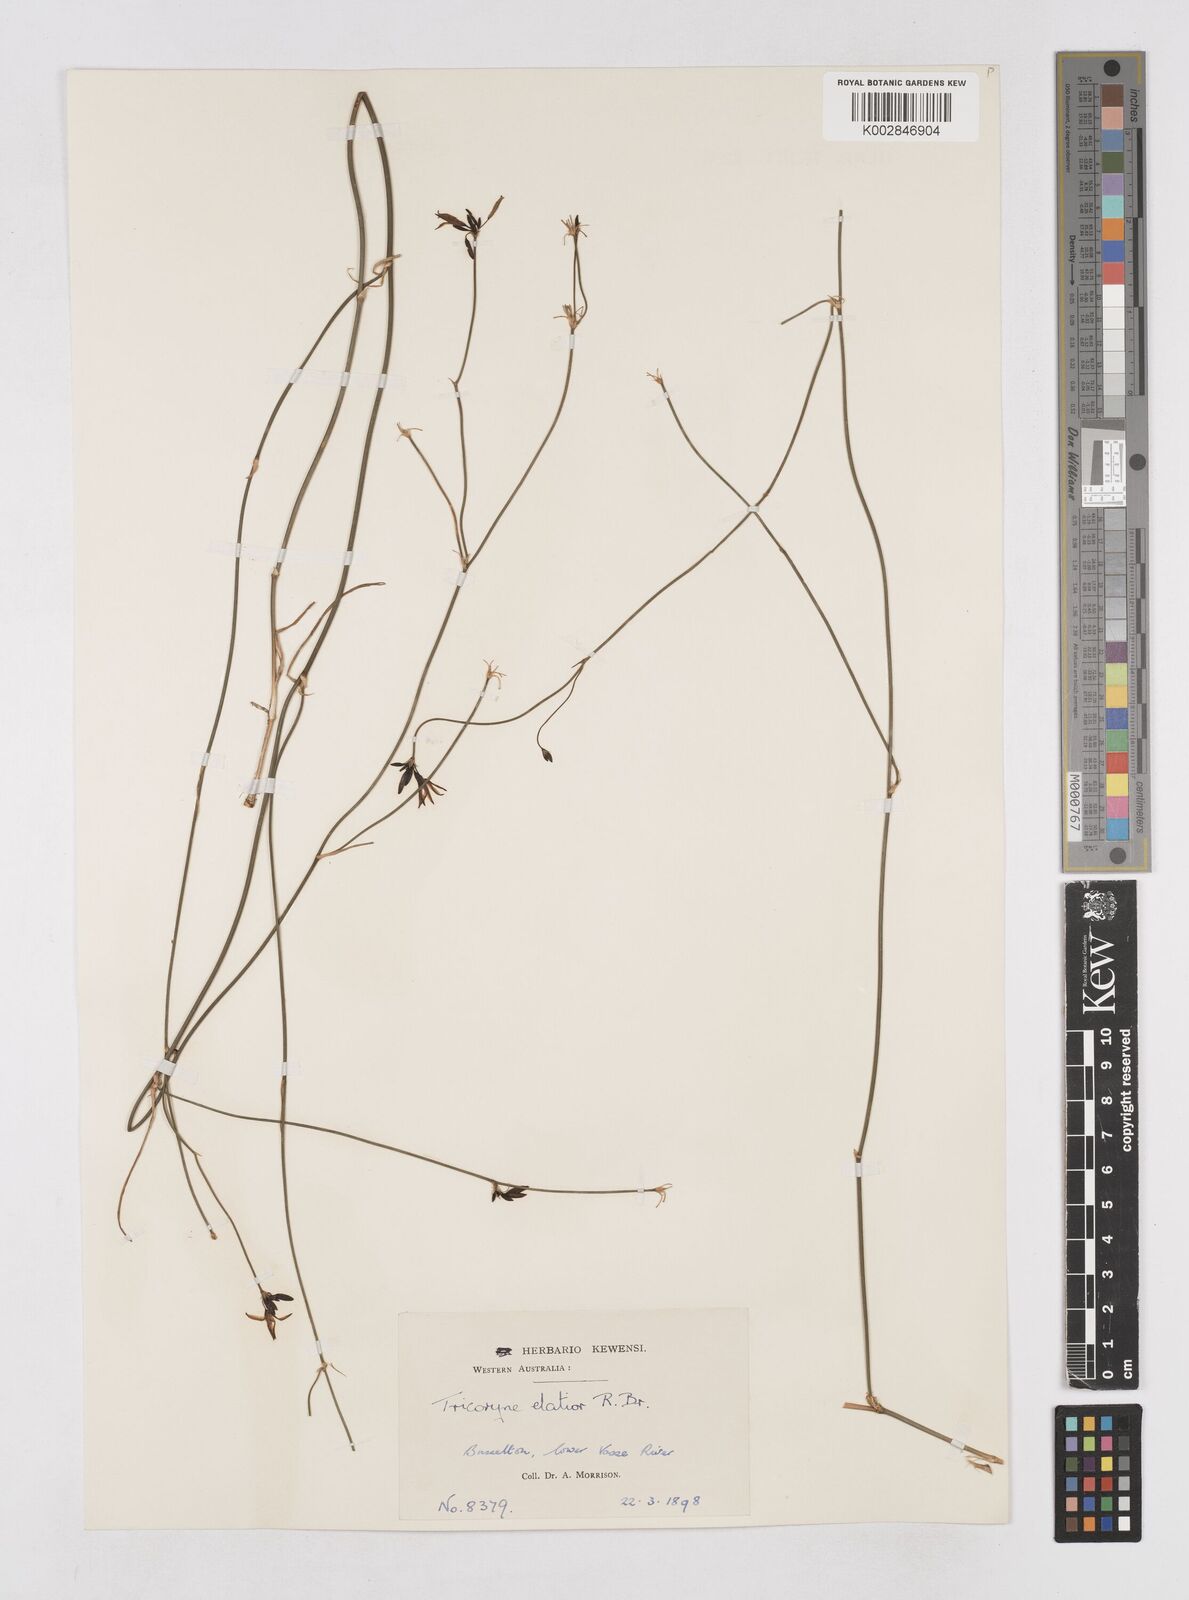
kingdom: Plantae
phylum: Tracheophyta
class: Liliopsida
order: Asparagales
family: Asphodelaceae
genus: Tricoryne
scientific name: Tricoryne elatior
